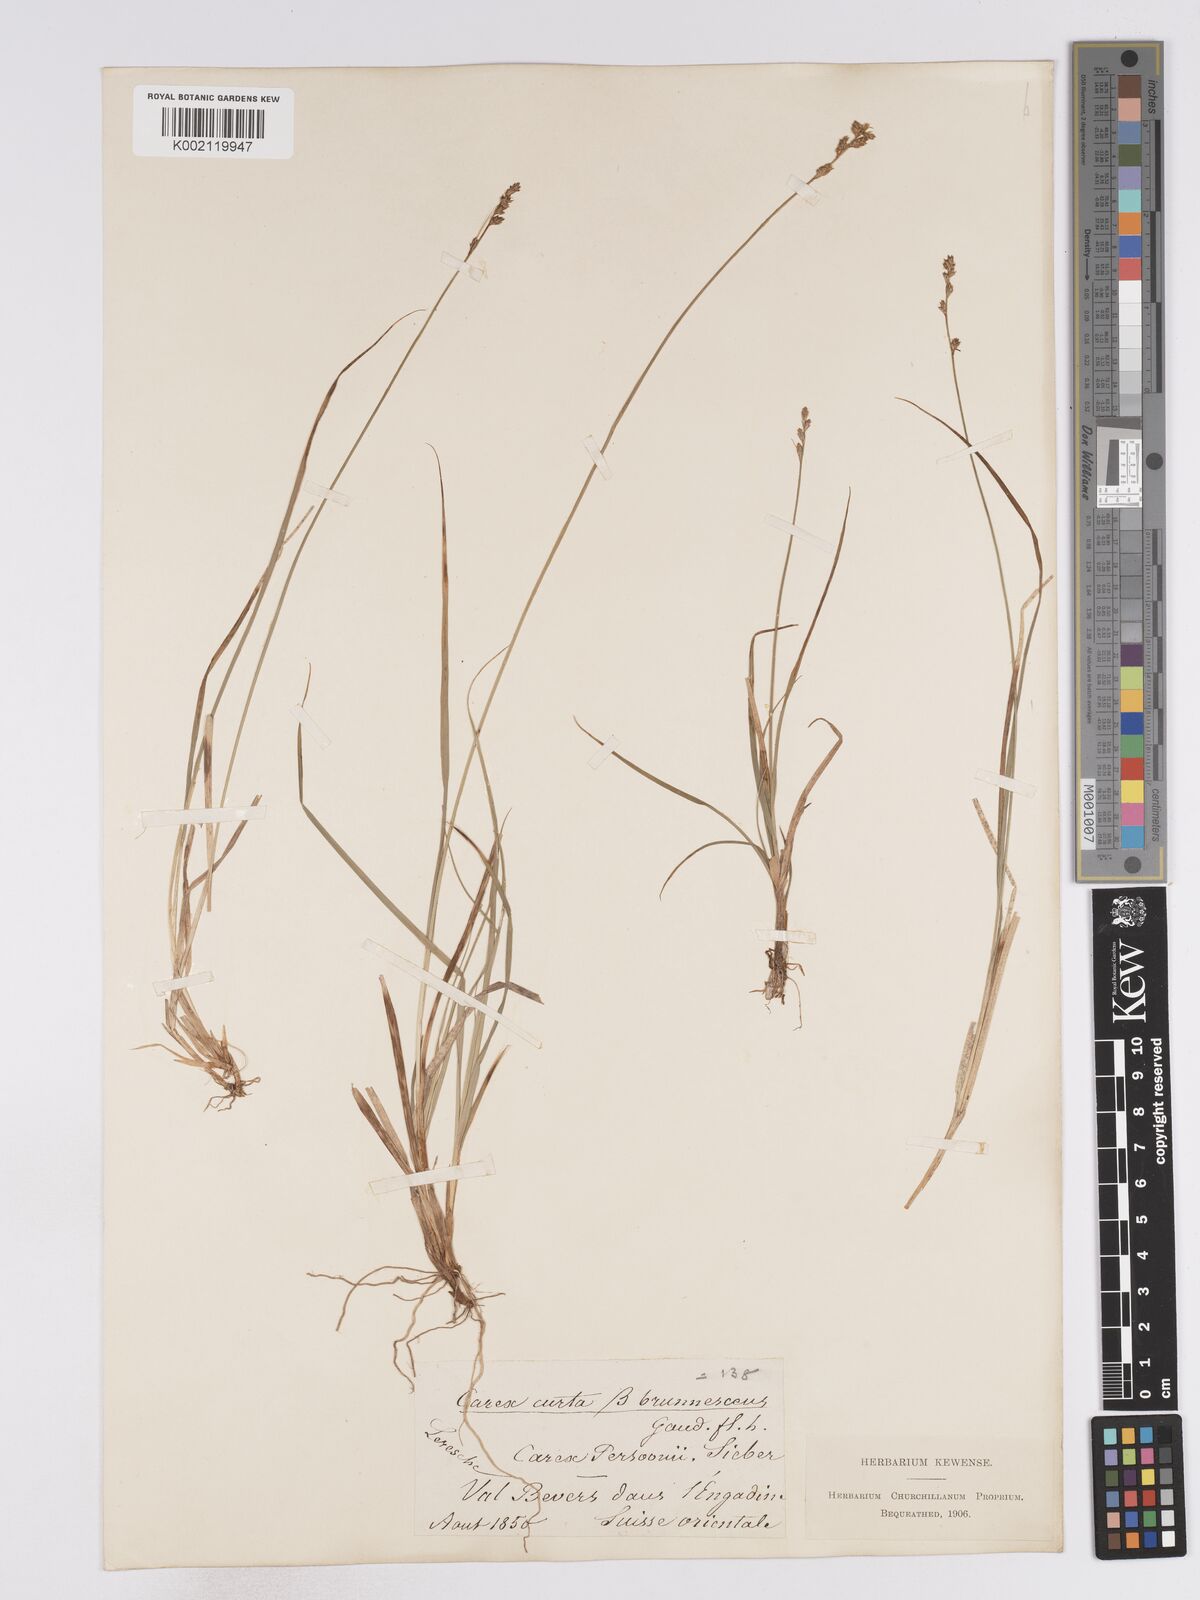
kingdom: Plantae
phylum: Tracheophyta
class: Liliopsida
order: Poales
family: Cyperaceae
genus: Carex
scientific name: Carex divisa
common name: Divided sedge
